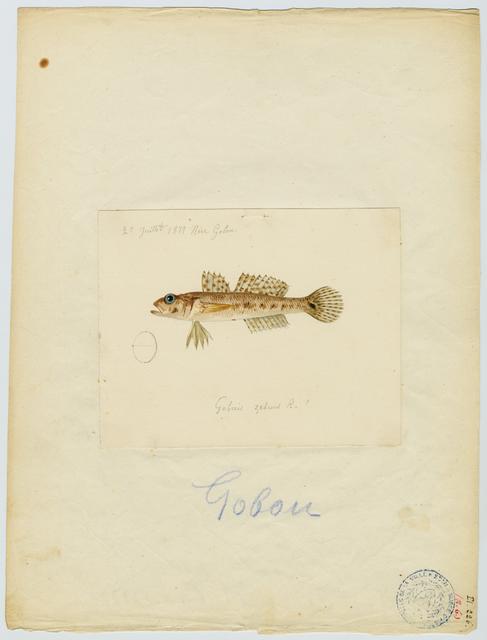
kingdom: Animalia
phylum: Chordata
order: Perciformes
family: Gobiidae
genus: Gobius
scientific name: Gobius geniporus
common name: Slender goby
